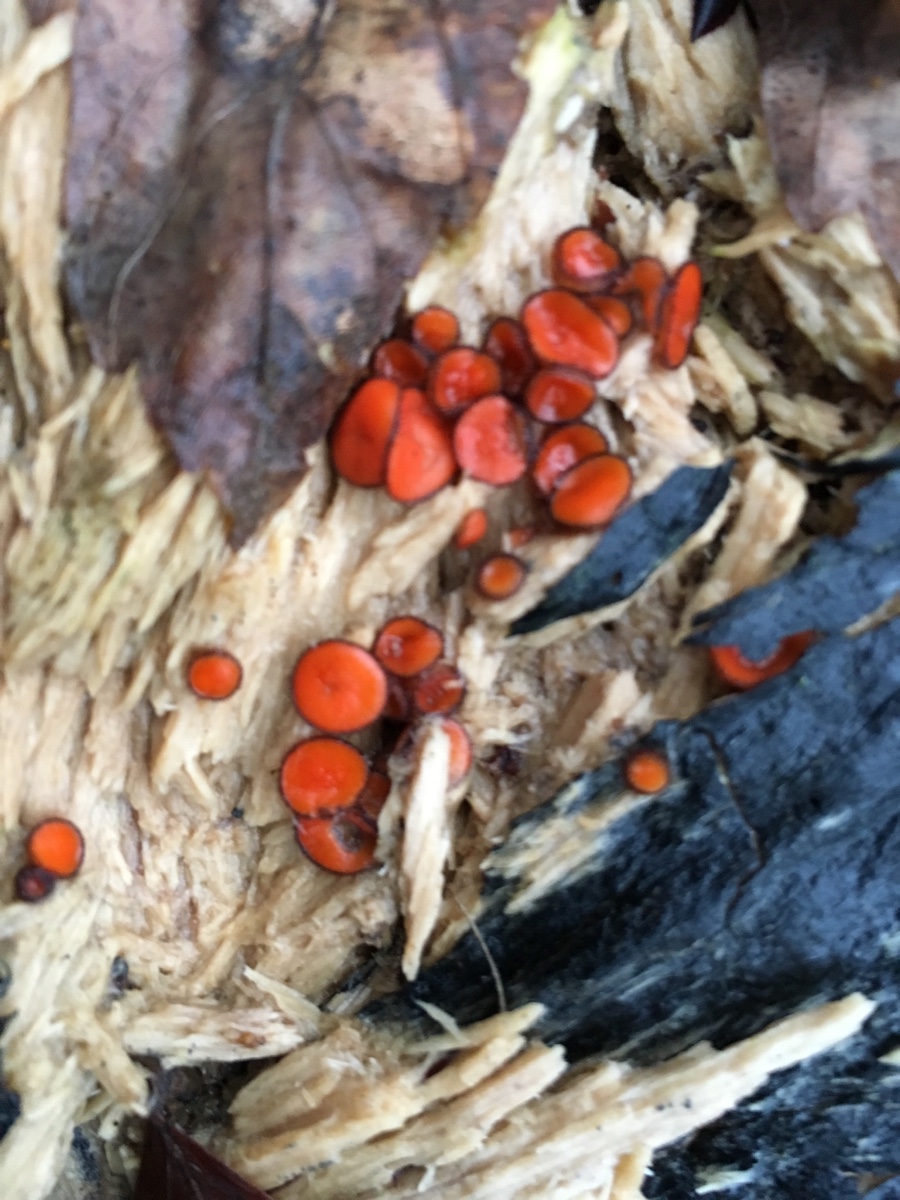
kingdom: Fungi
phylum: Ascomycota
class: Pezizomycetes
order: Pezizales
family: Pyronemataceae
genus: Scutellinia
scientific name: Scutellinia
